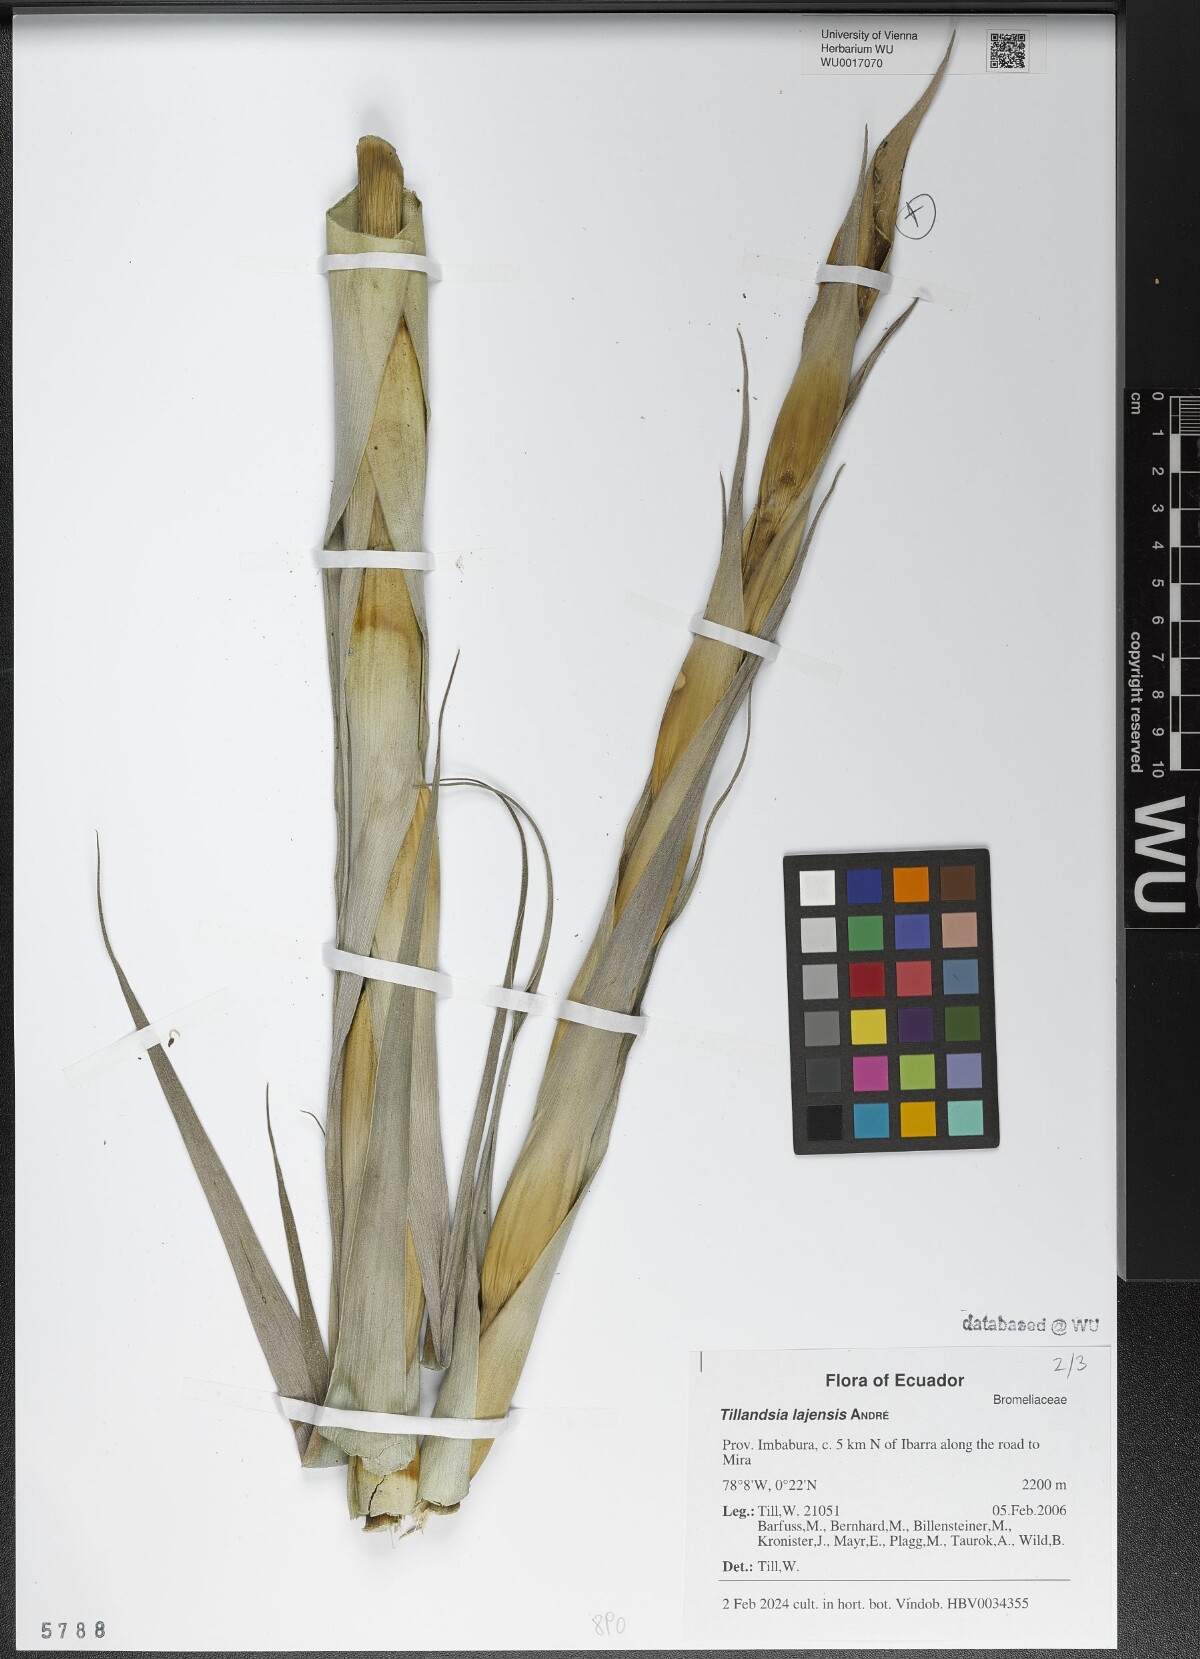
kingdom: Plantae
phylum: Tracheophyta
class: Liliopsida
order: Poales
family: Bromeliaceae
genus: Tillandsia
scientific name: Tillandsia lajensis
